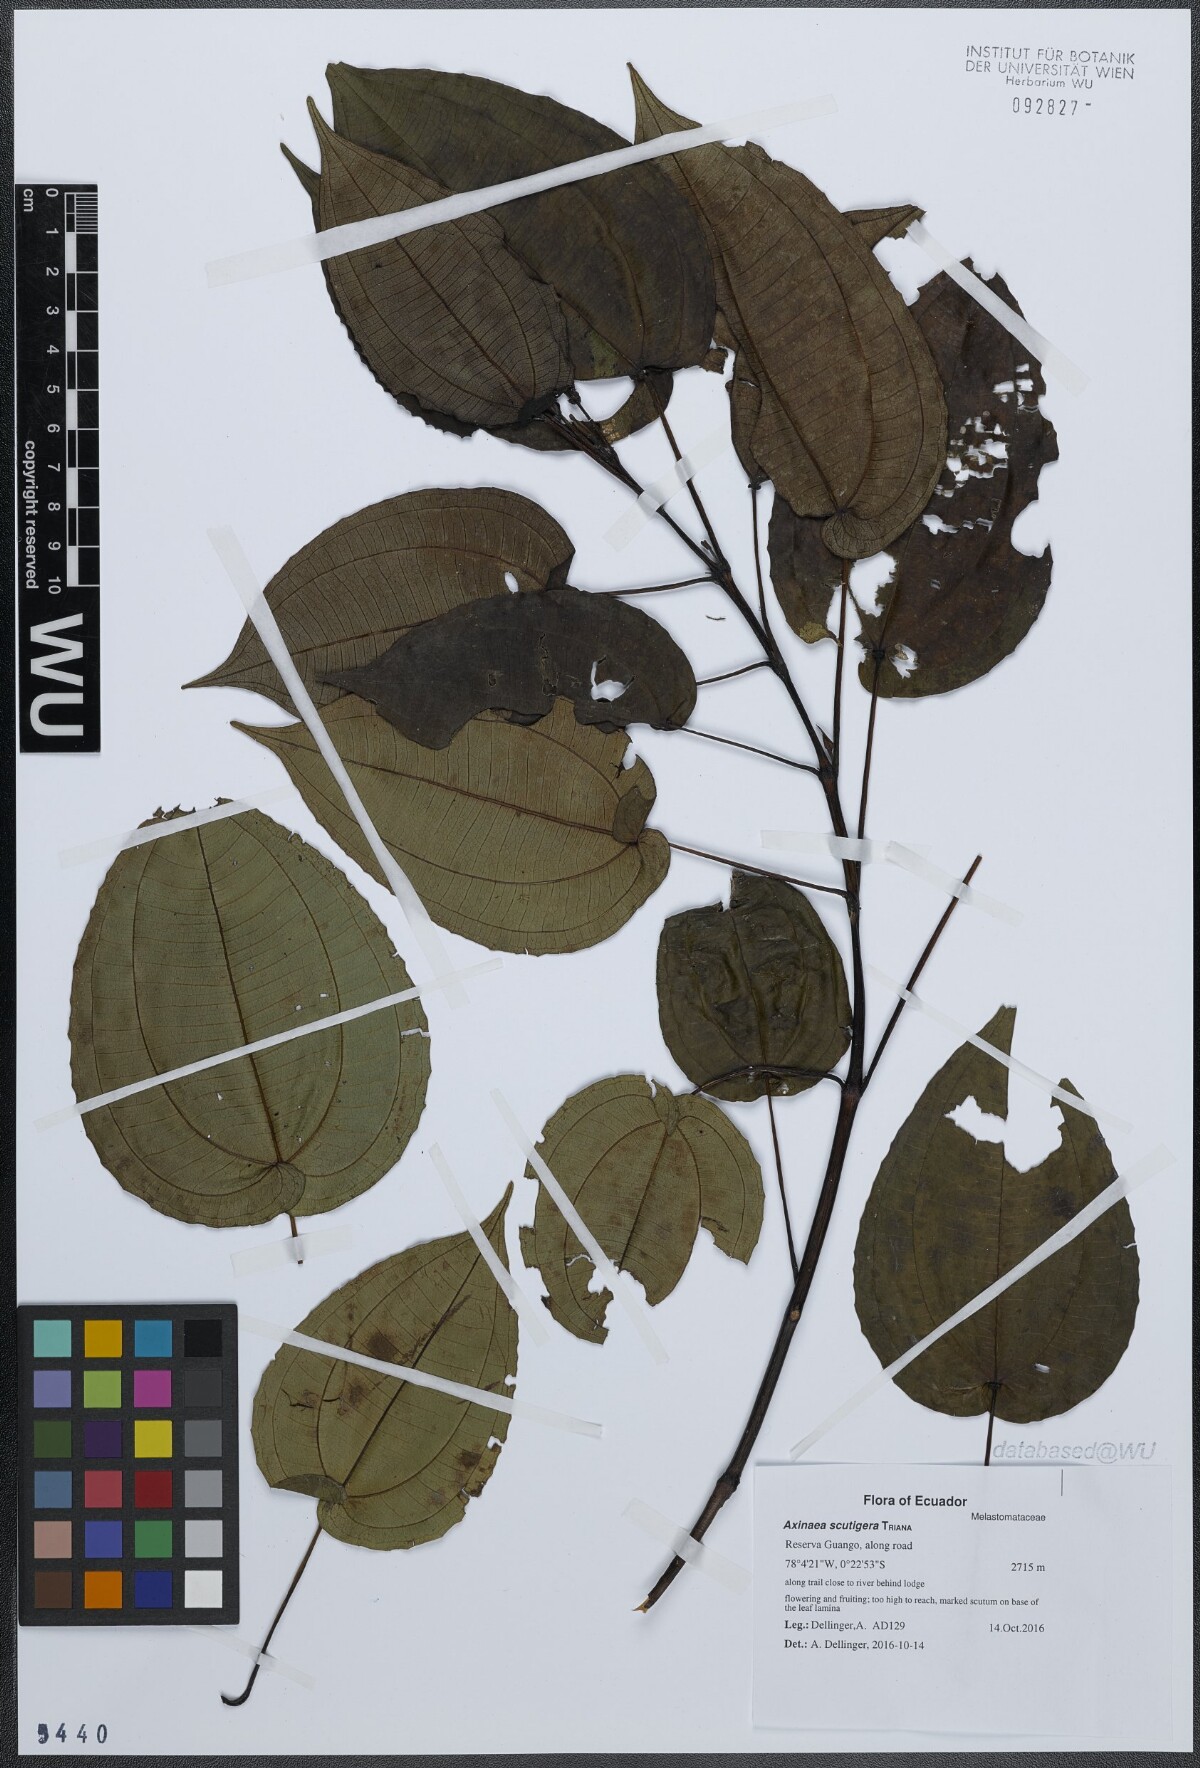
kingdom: Plantae
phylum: Tracheophyta
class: Magnoliopsida
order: Myrtales
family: Melastomataceae
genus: Axinaea
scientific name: Axinaea scutigera
